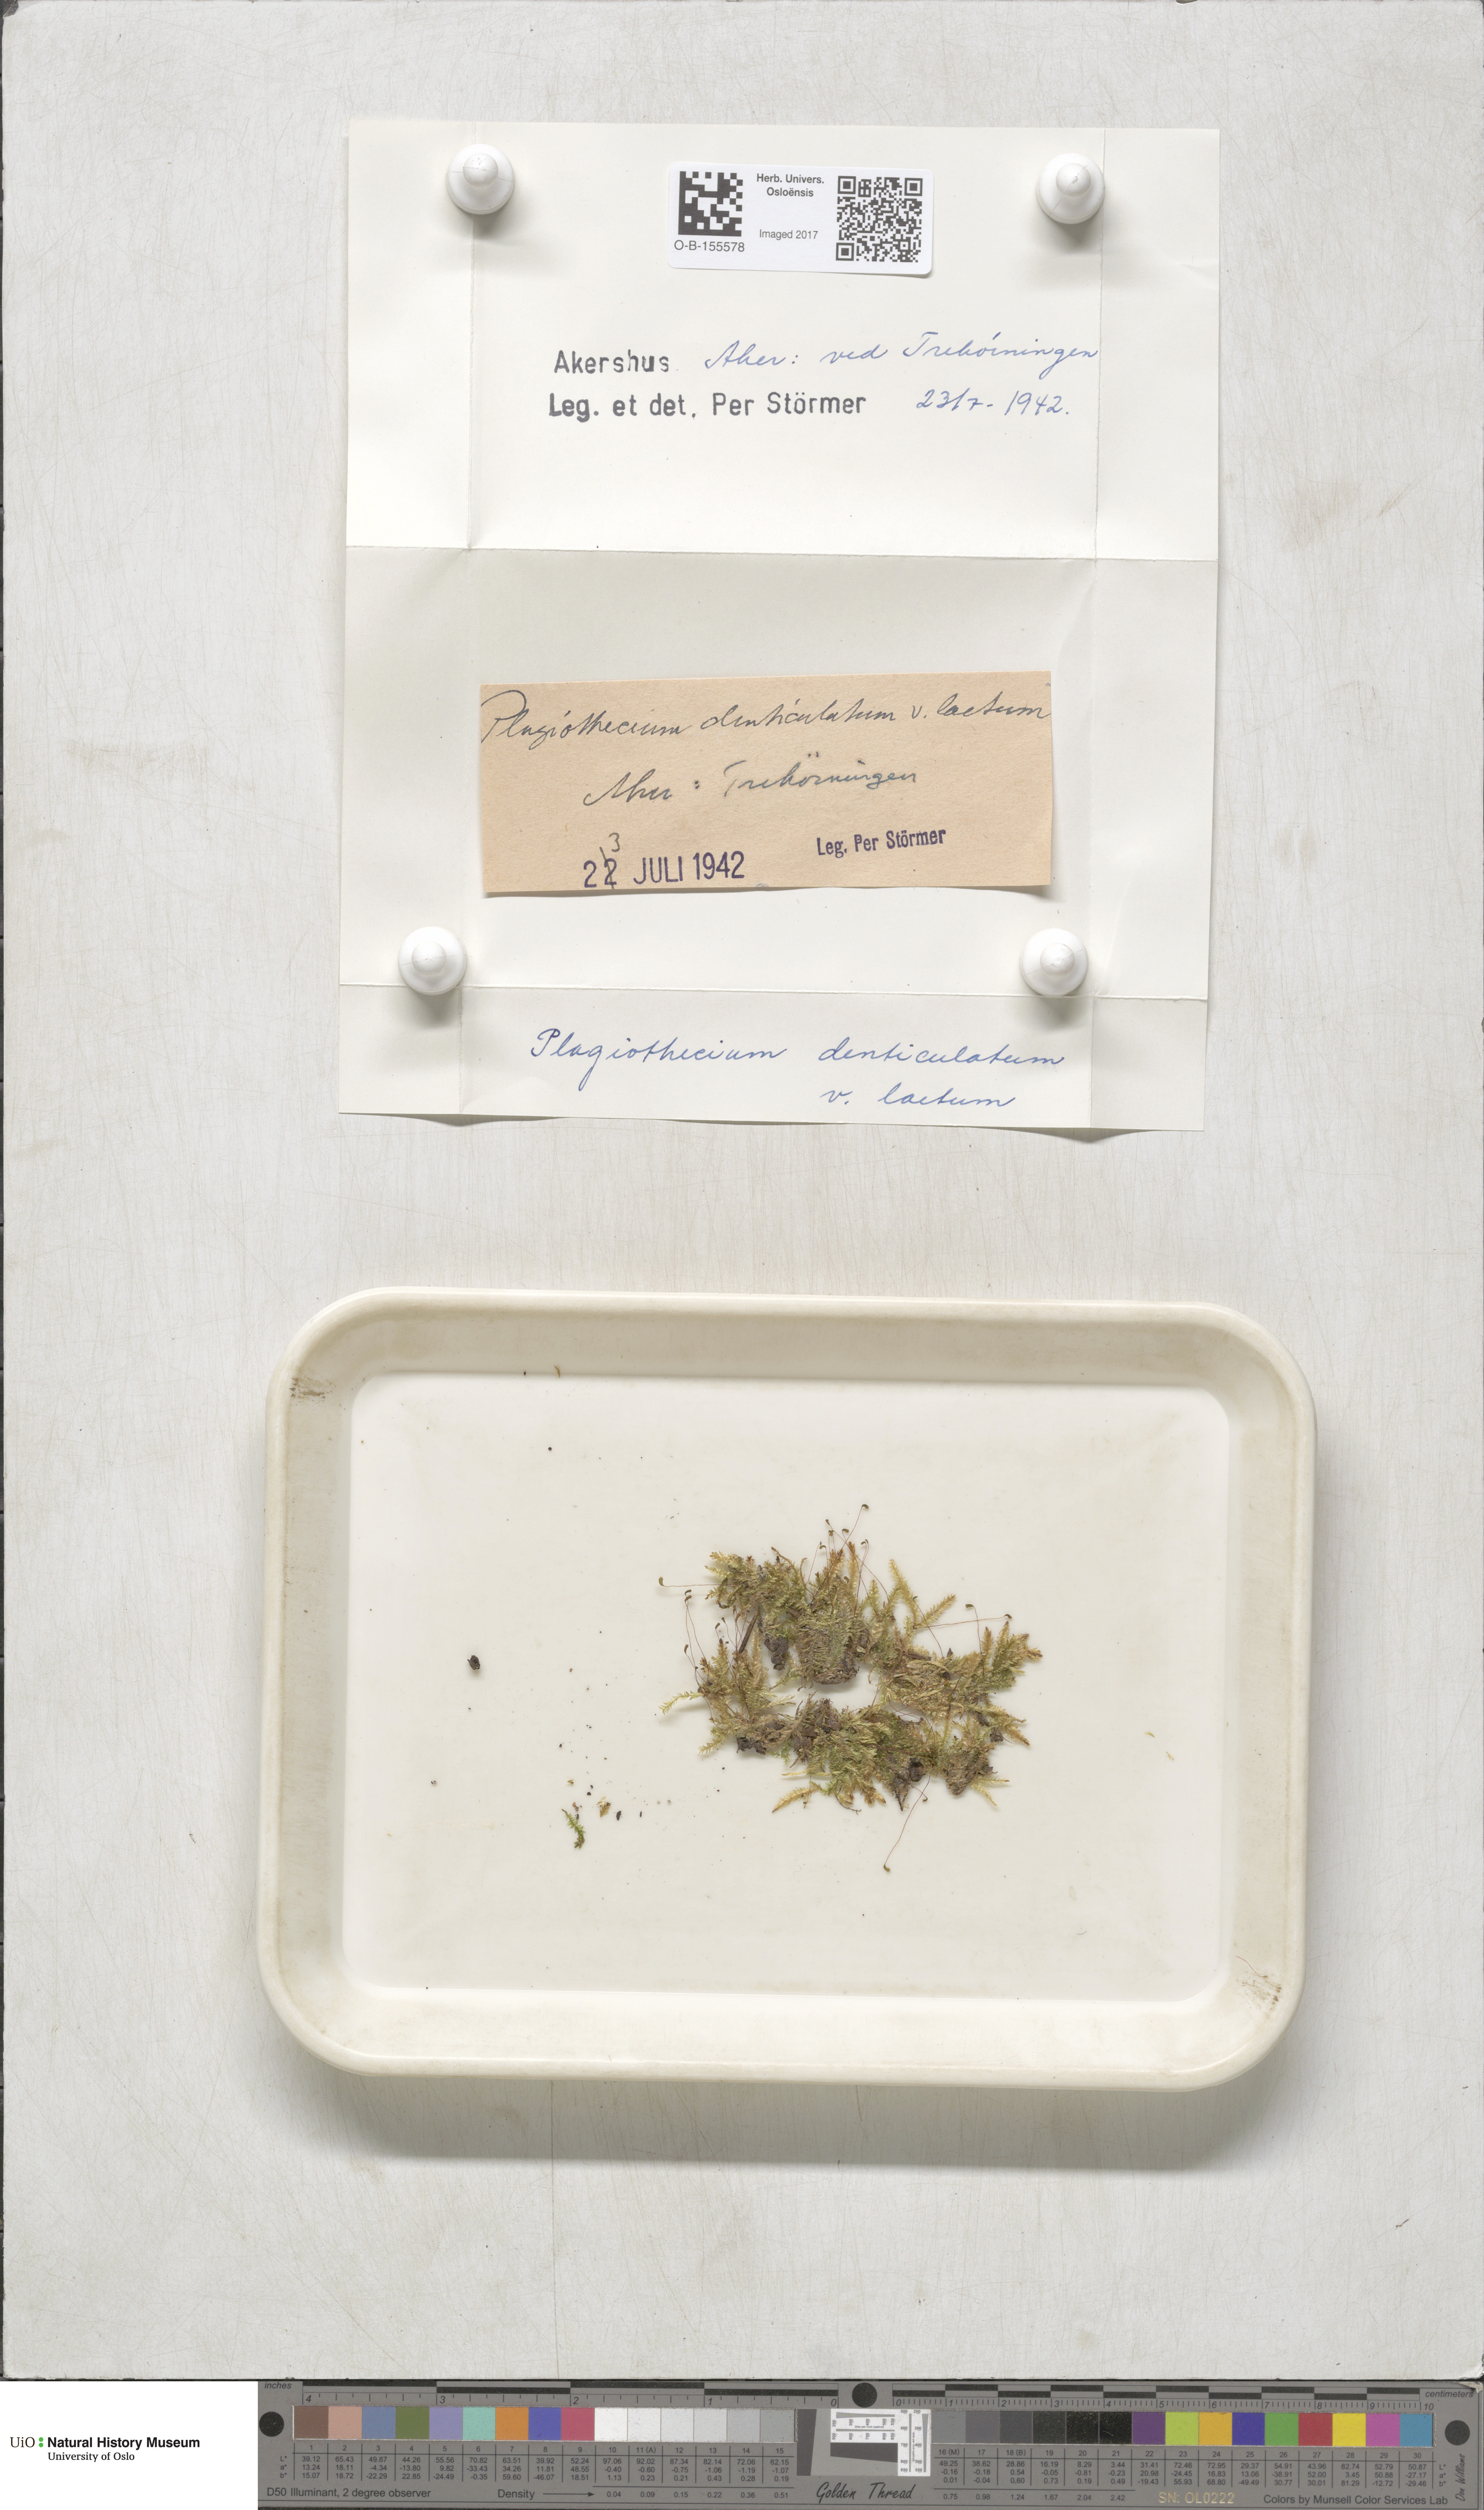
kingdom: Plantae
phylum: Bryophyta
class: Bryopsida
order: Hypnales
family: Plagiotheciaceae
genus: Plagiothecium
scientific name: Plagiothecium laetum
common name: Bright silk moss
